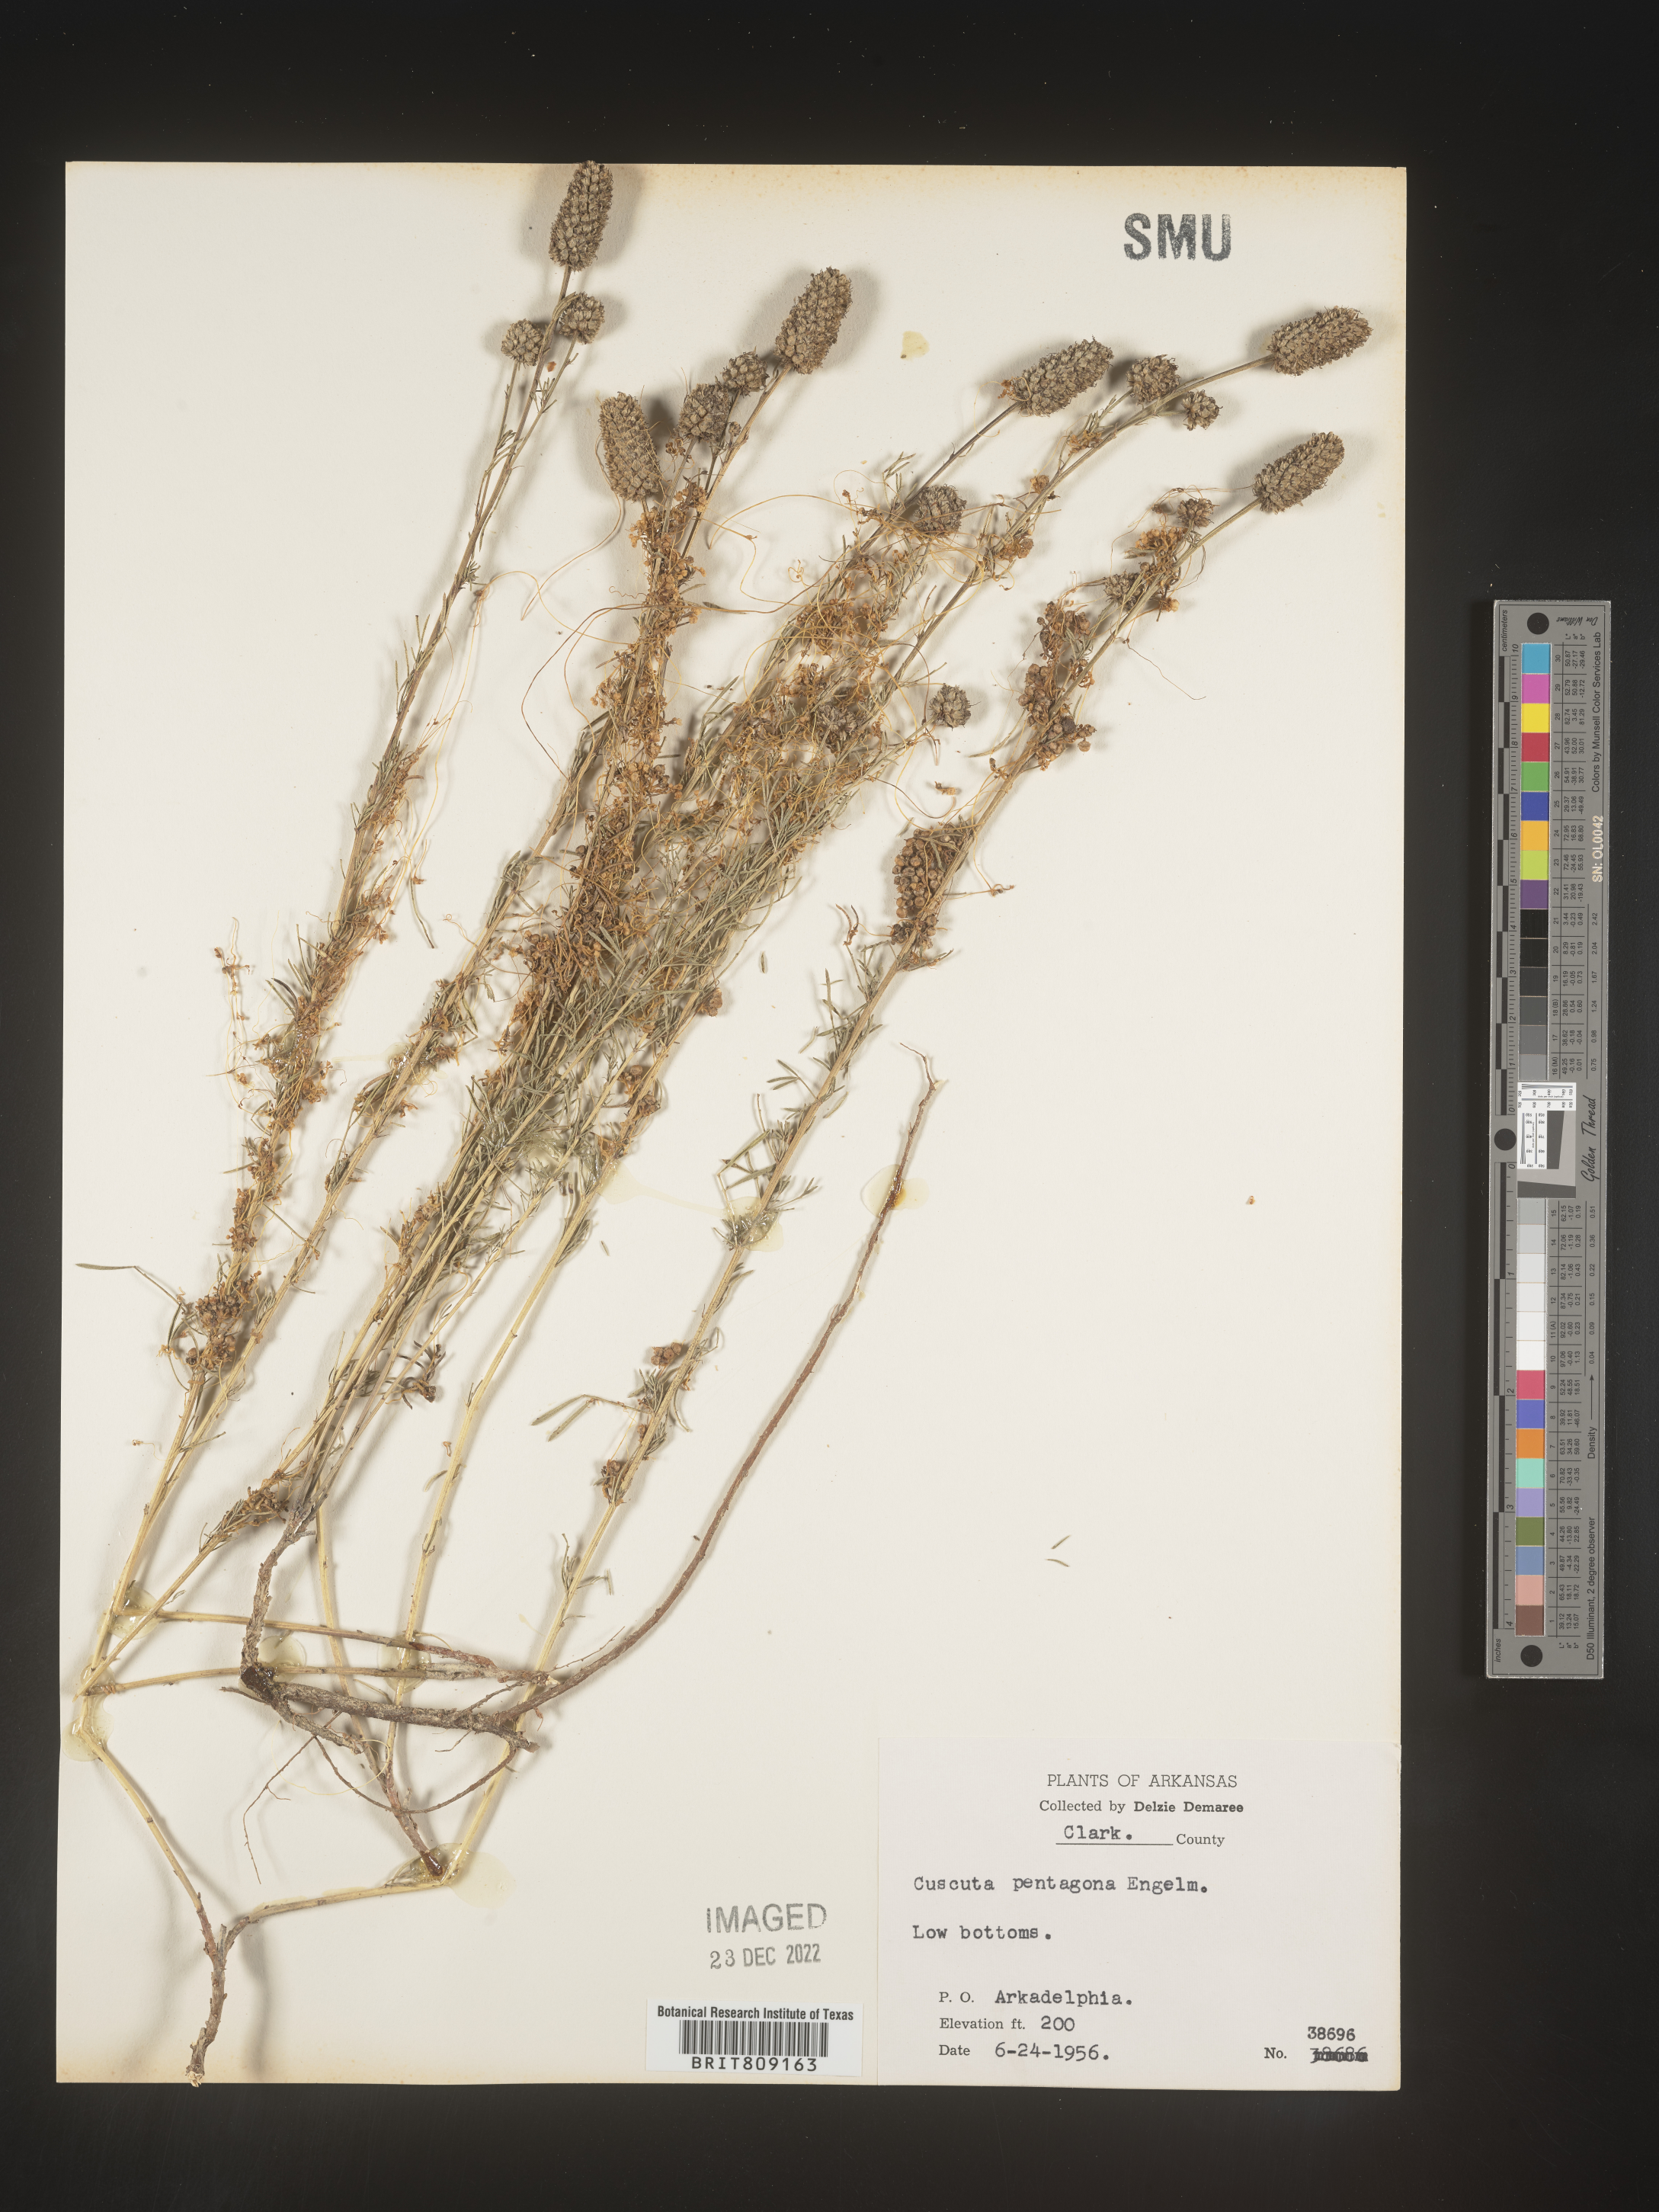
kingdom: Plantae
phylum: Tracheophyta
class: Magnoliopsida
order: Solanales
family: Convolvulaceae
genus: Cuscuta
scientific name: Cuscuta campestris
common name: Yellow dodder
